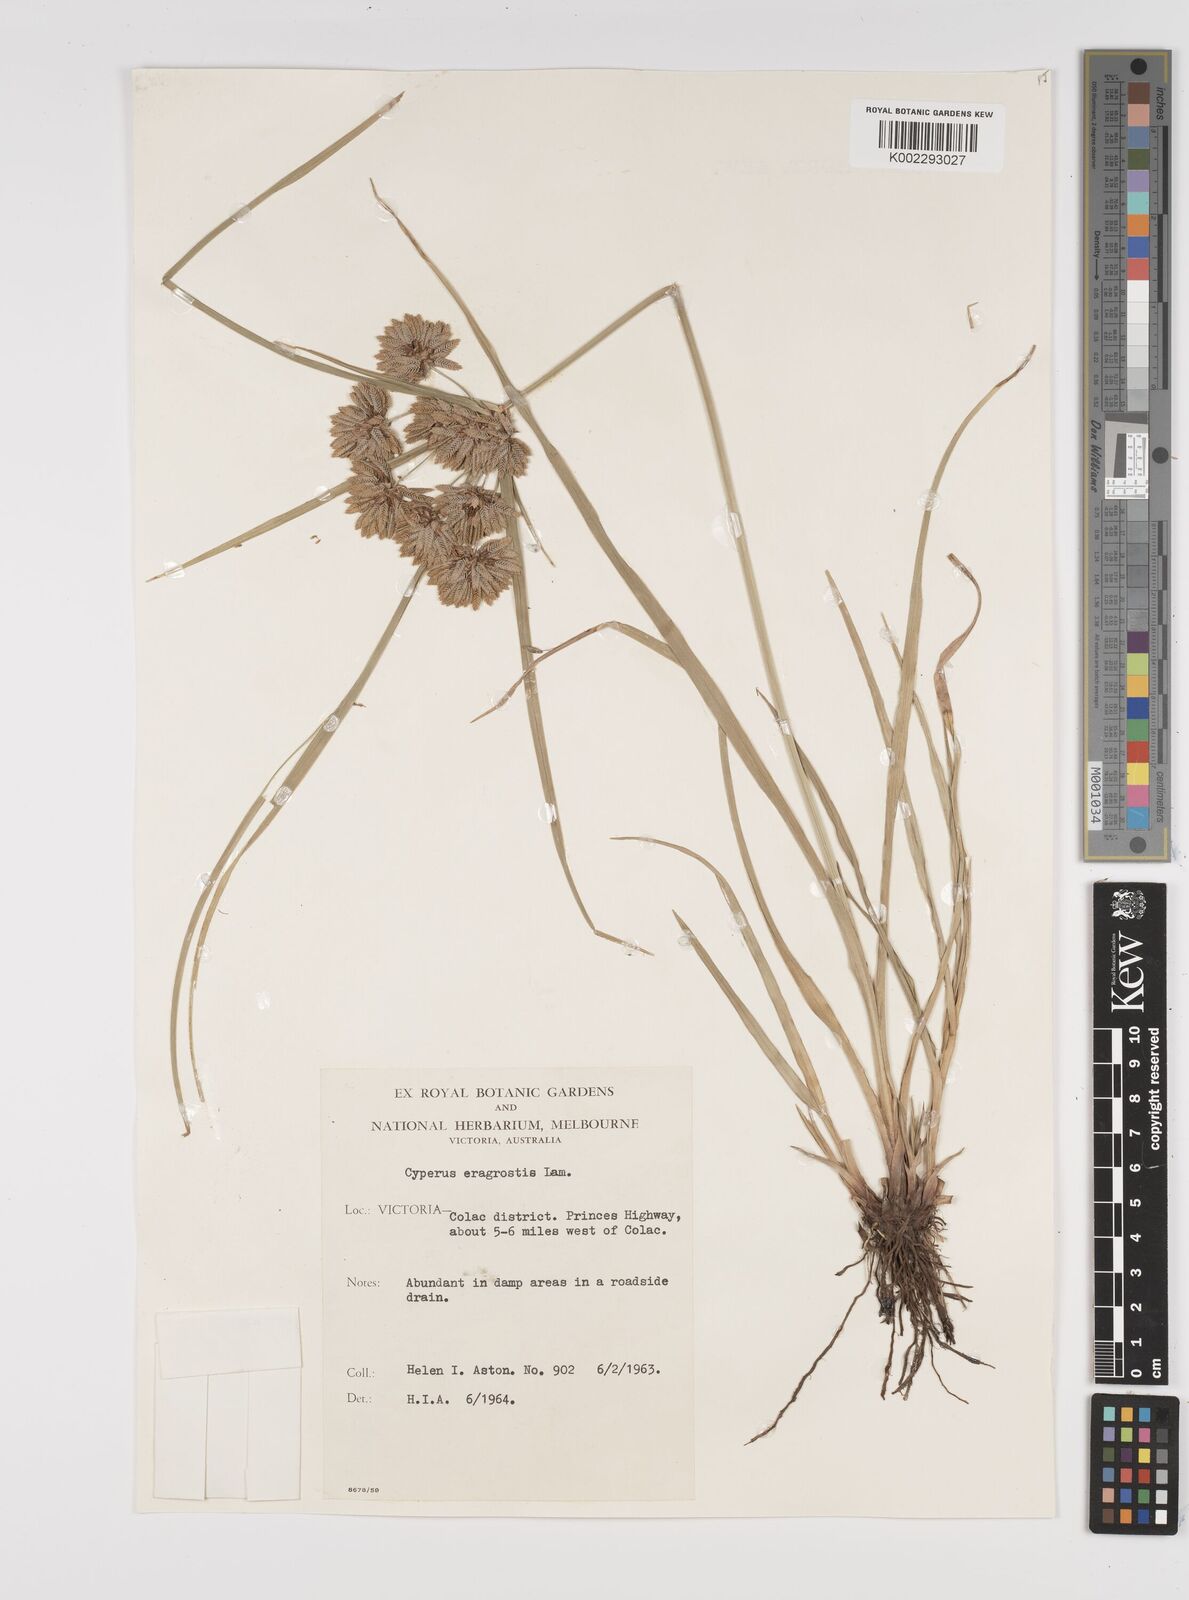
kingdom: Plantae
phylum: Tracheophyta
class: Liliopsida
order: Poales
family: Cyperaceae
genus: Cyperus
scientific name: Cyperus eragrostis
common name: Tall flatsedge
